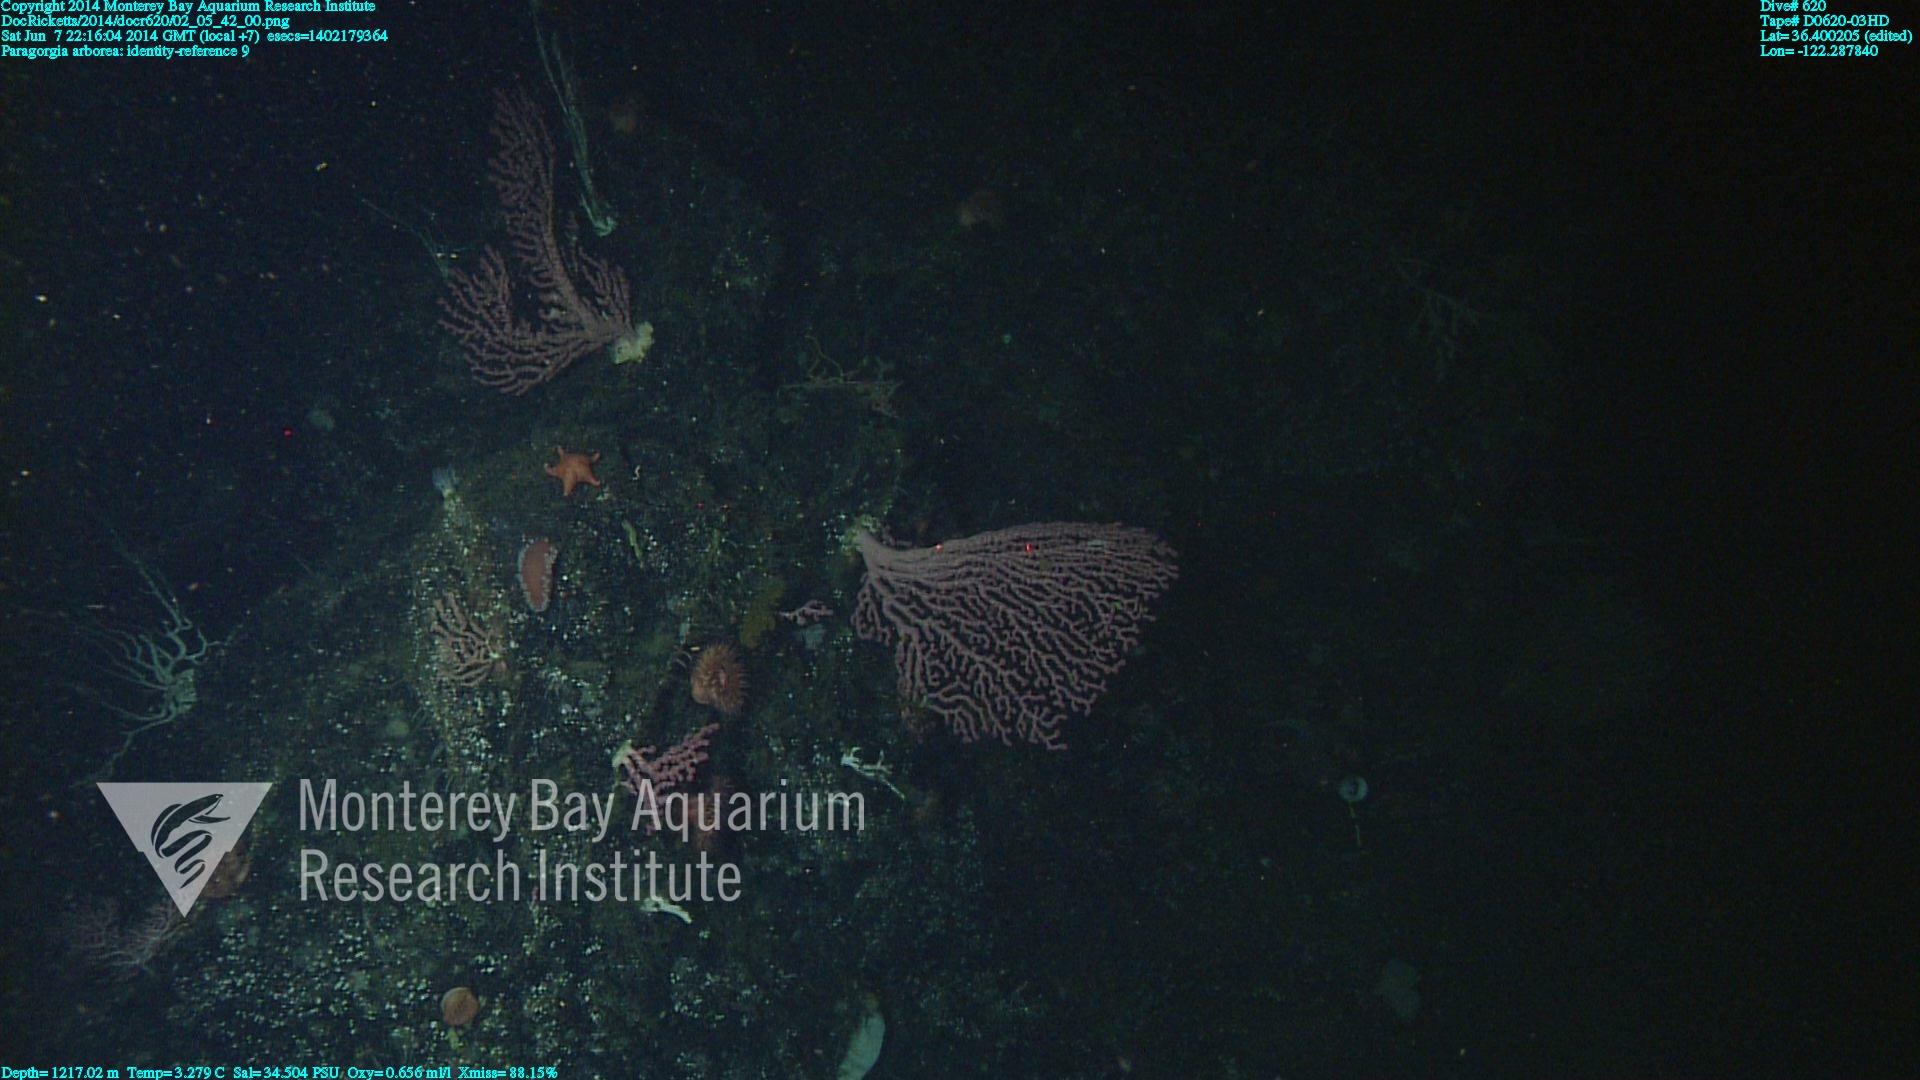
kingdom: Animalia
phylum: Cnidaria
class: Anthozoa
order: Scleralcyonacea
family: Coralliidae
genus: Paragorgia
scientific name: Paragorgia arborea
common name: Bubble gum coral
